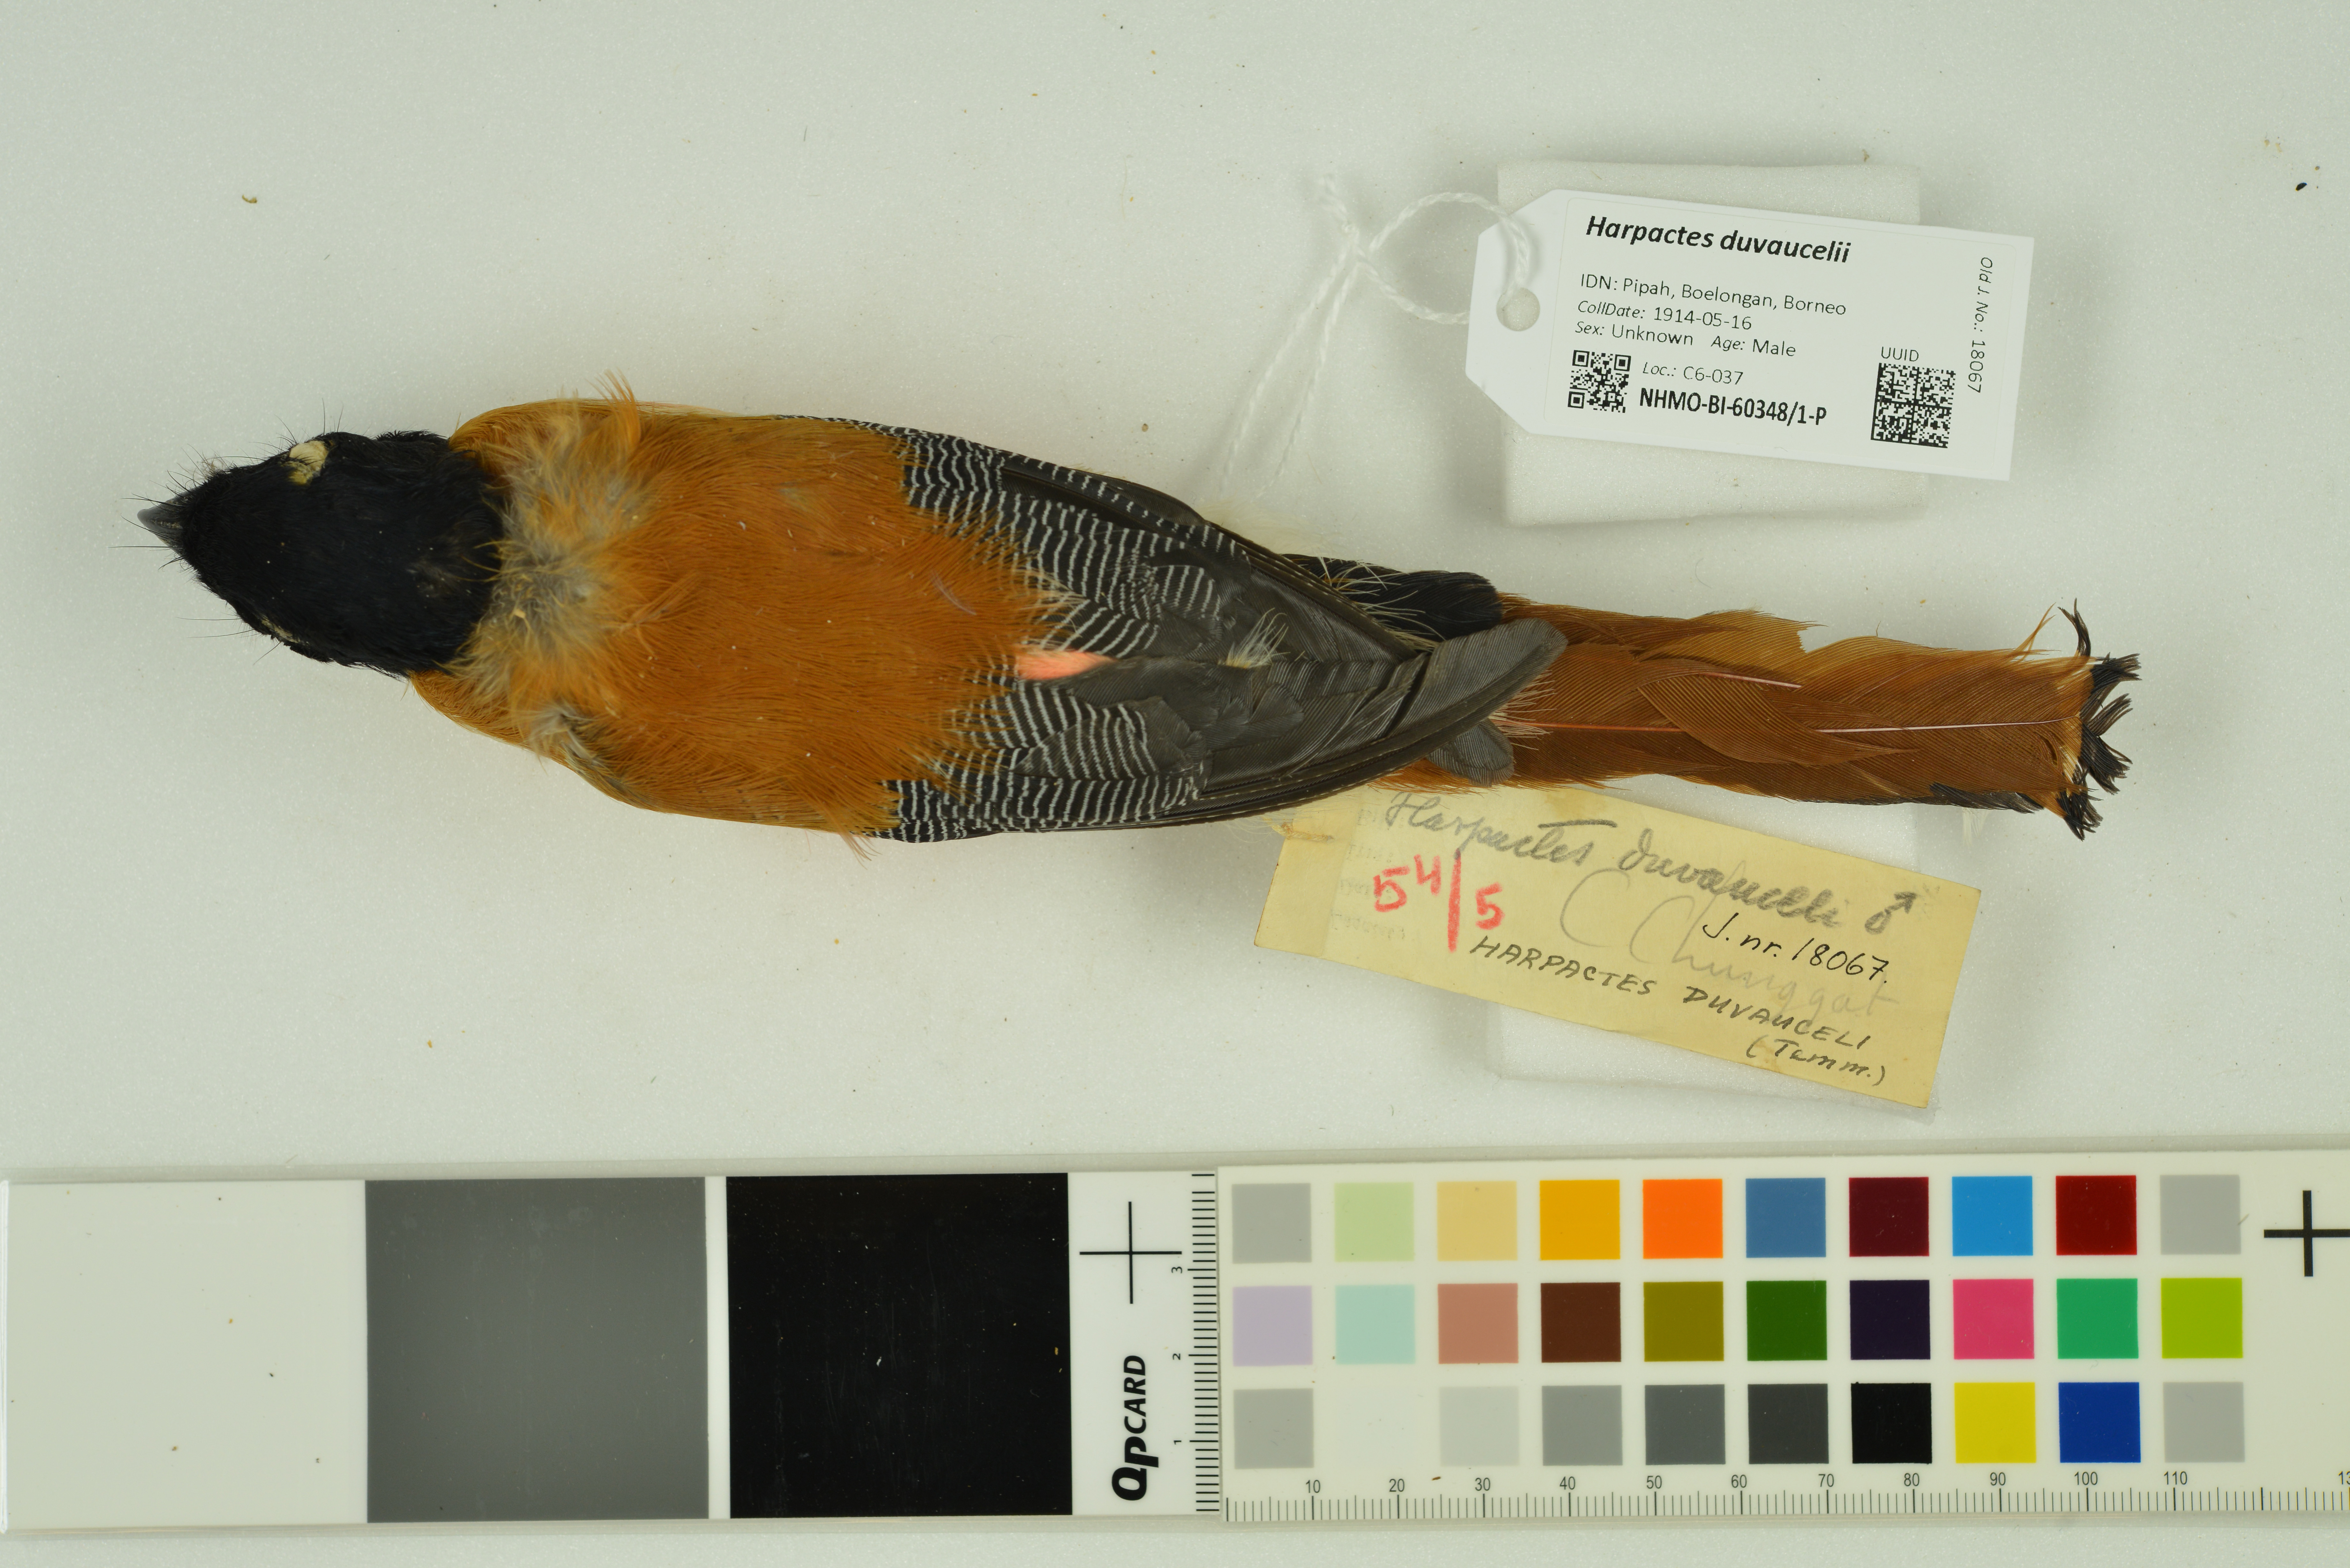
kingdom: Animalia
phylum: Chordata
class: Aves
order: Trogoniformes
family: Trogonidae
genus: Harpactes
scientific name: Harpactes duvaucelii
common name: Scarlet-rumped trogon
